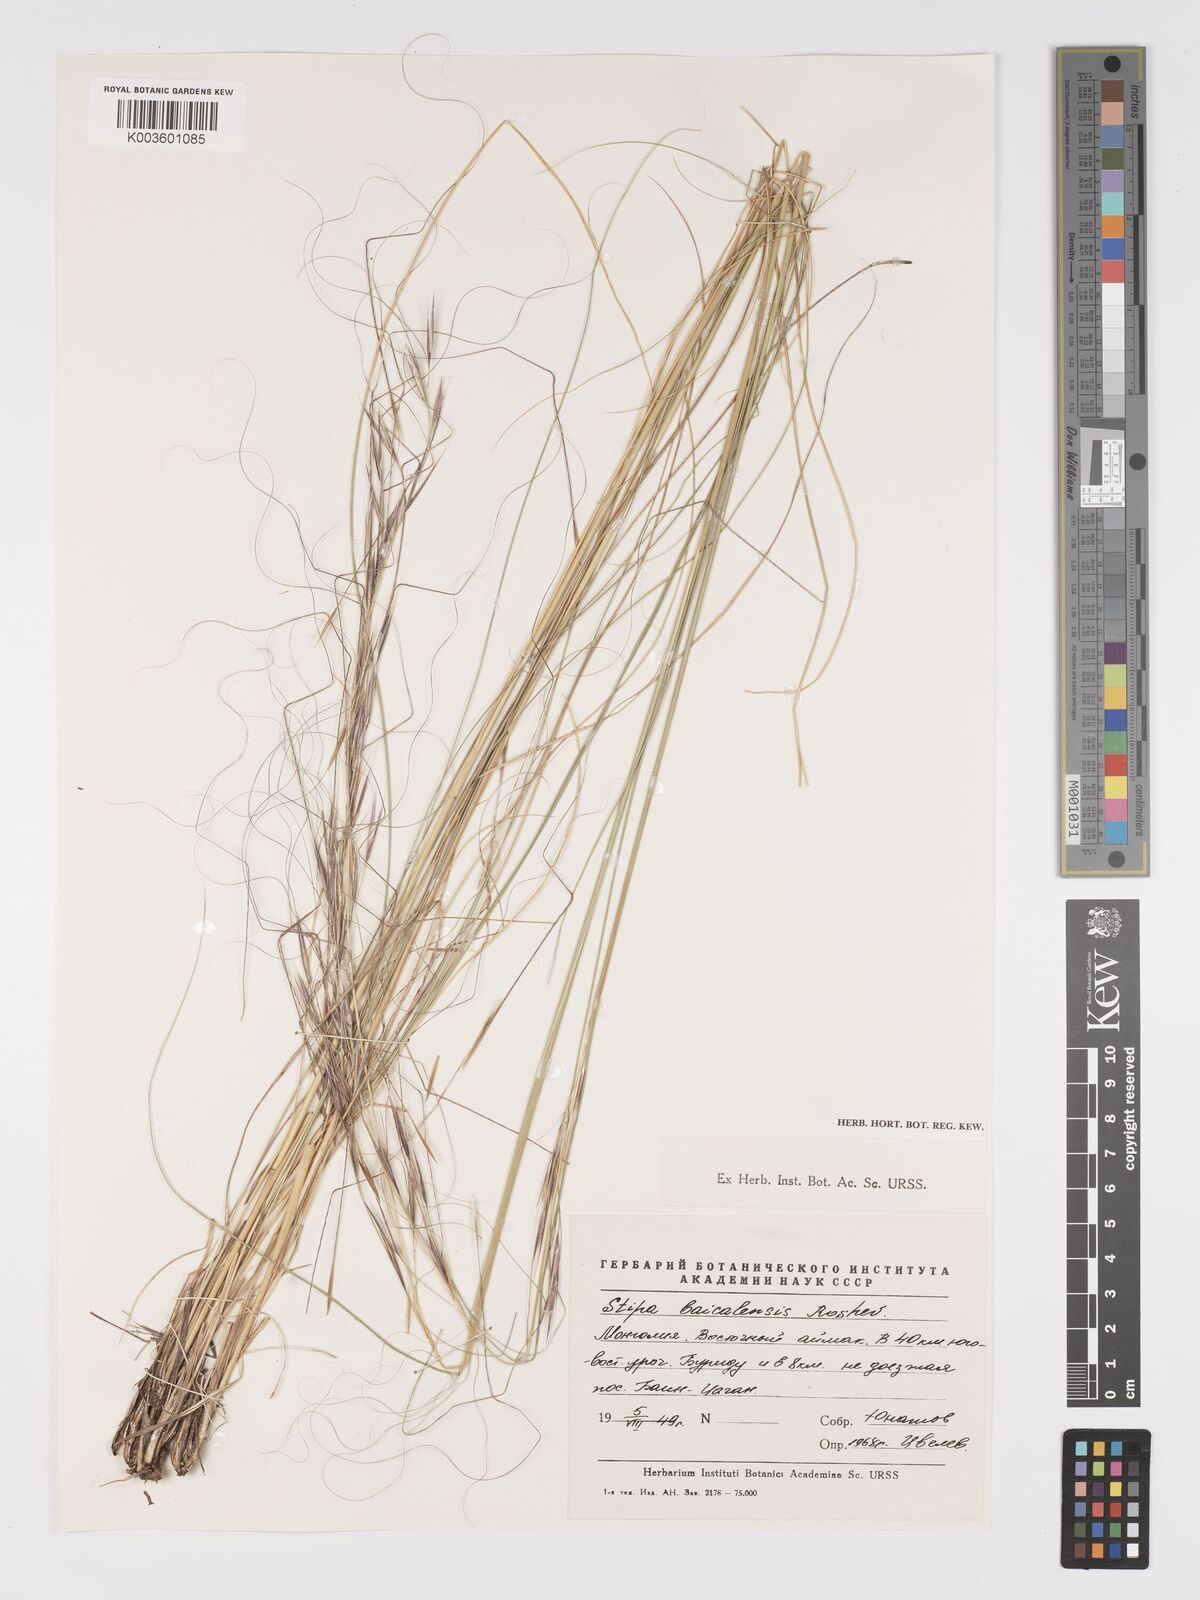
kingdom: Plantae
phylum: Tracheophyta
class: Liliopsida
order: Poales
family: Poaceae
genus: Stipa
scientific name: Stipa baicalensis
